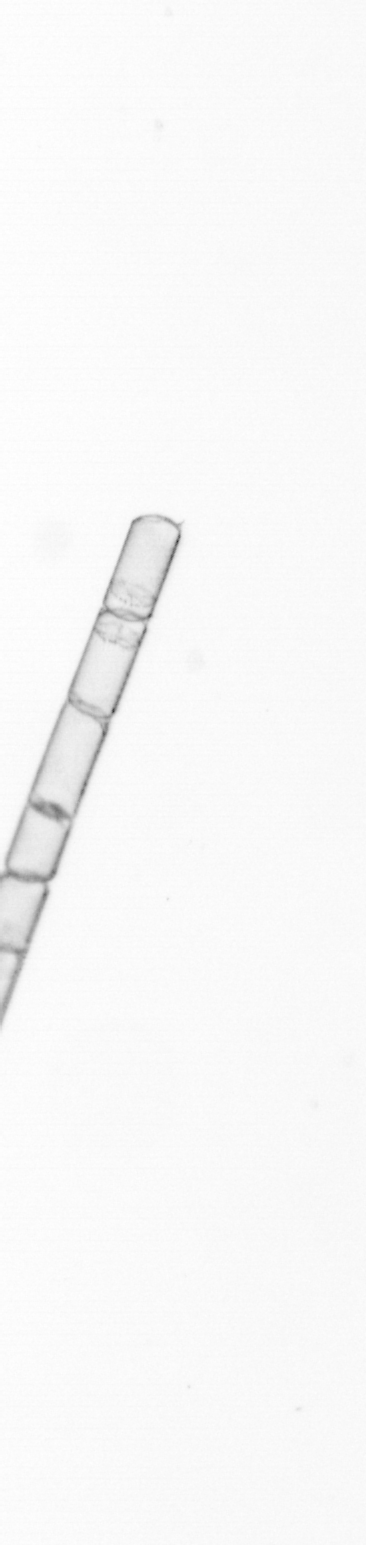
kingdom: Chromista
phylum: Ochrophyta
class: Bacillariophyceae
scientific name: Bacillariophyceae
